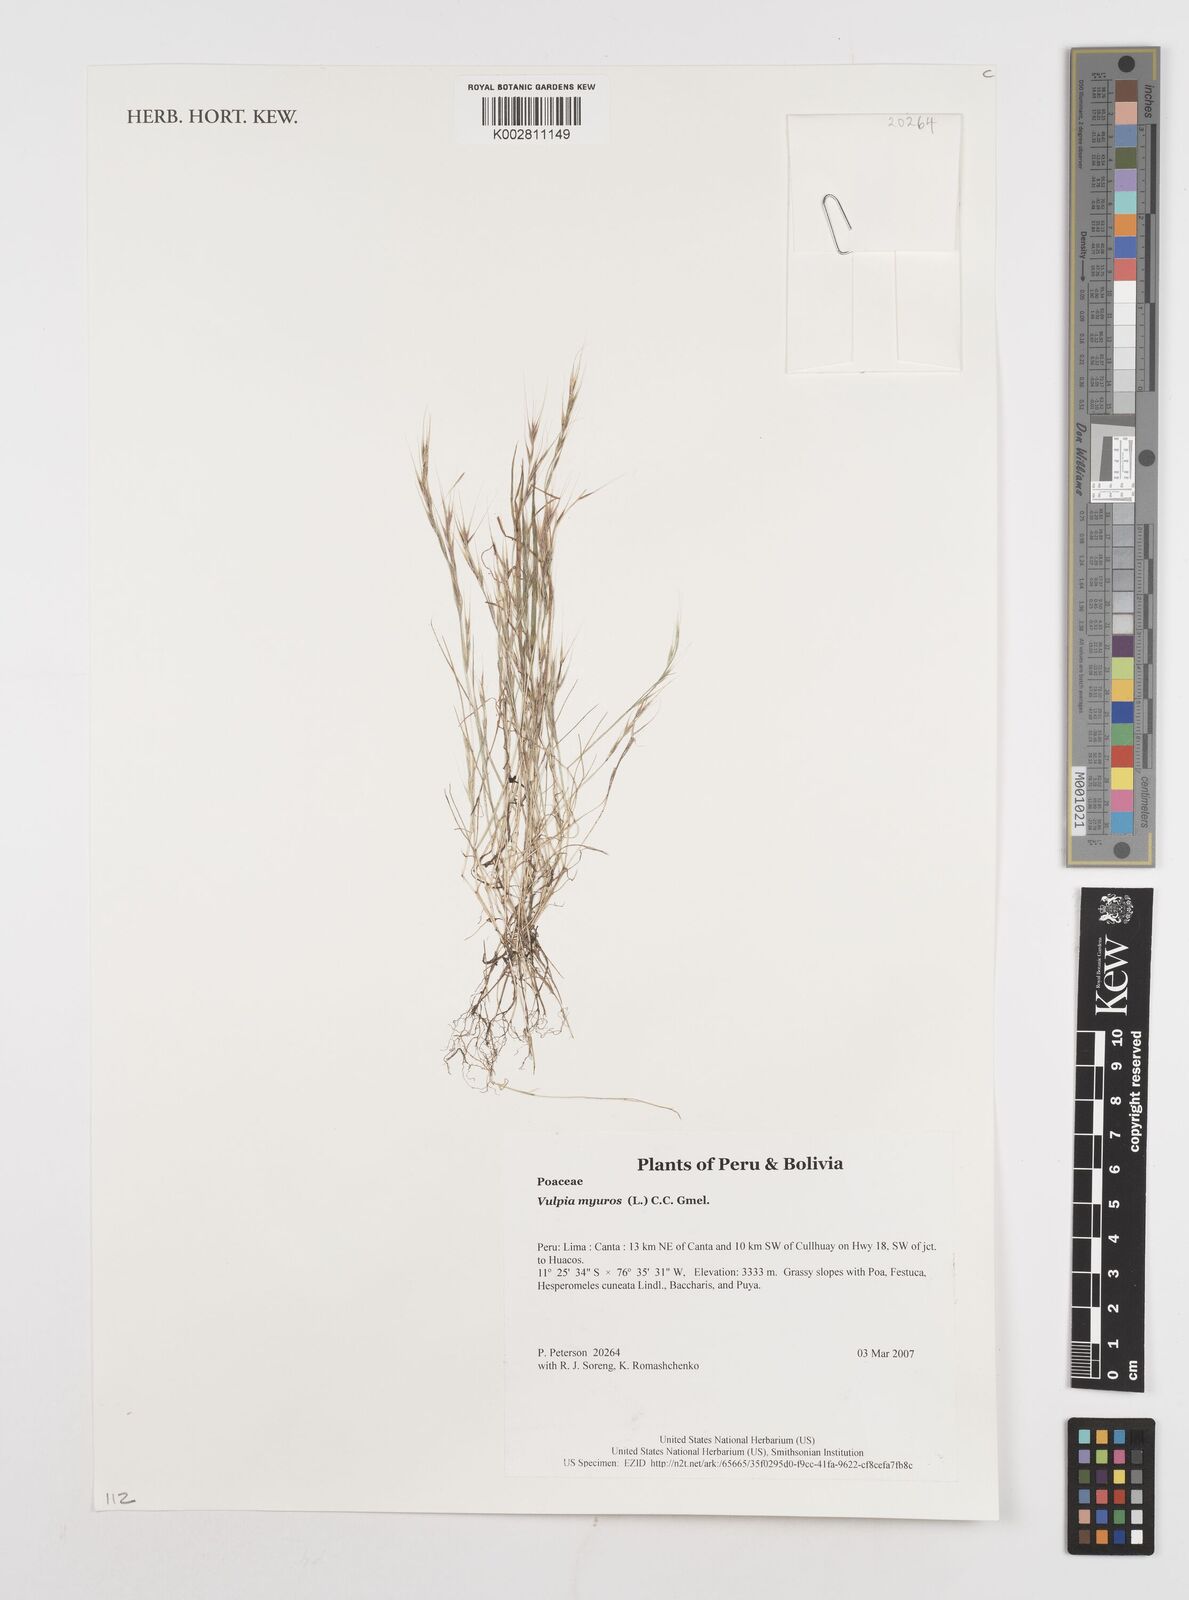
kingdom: Plantae
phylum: Tracheophyta
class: Liliopsida
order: Poales
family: Poaceae
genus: Festuca
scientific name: Festuca myuros
